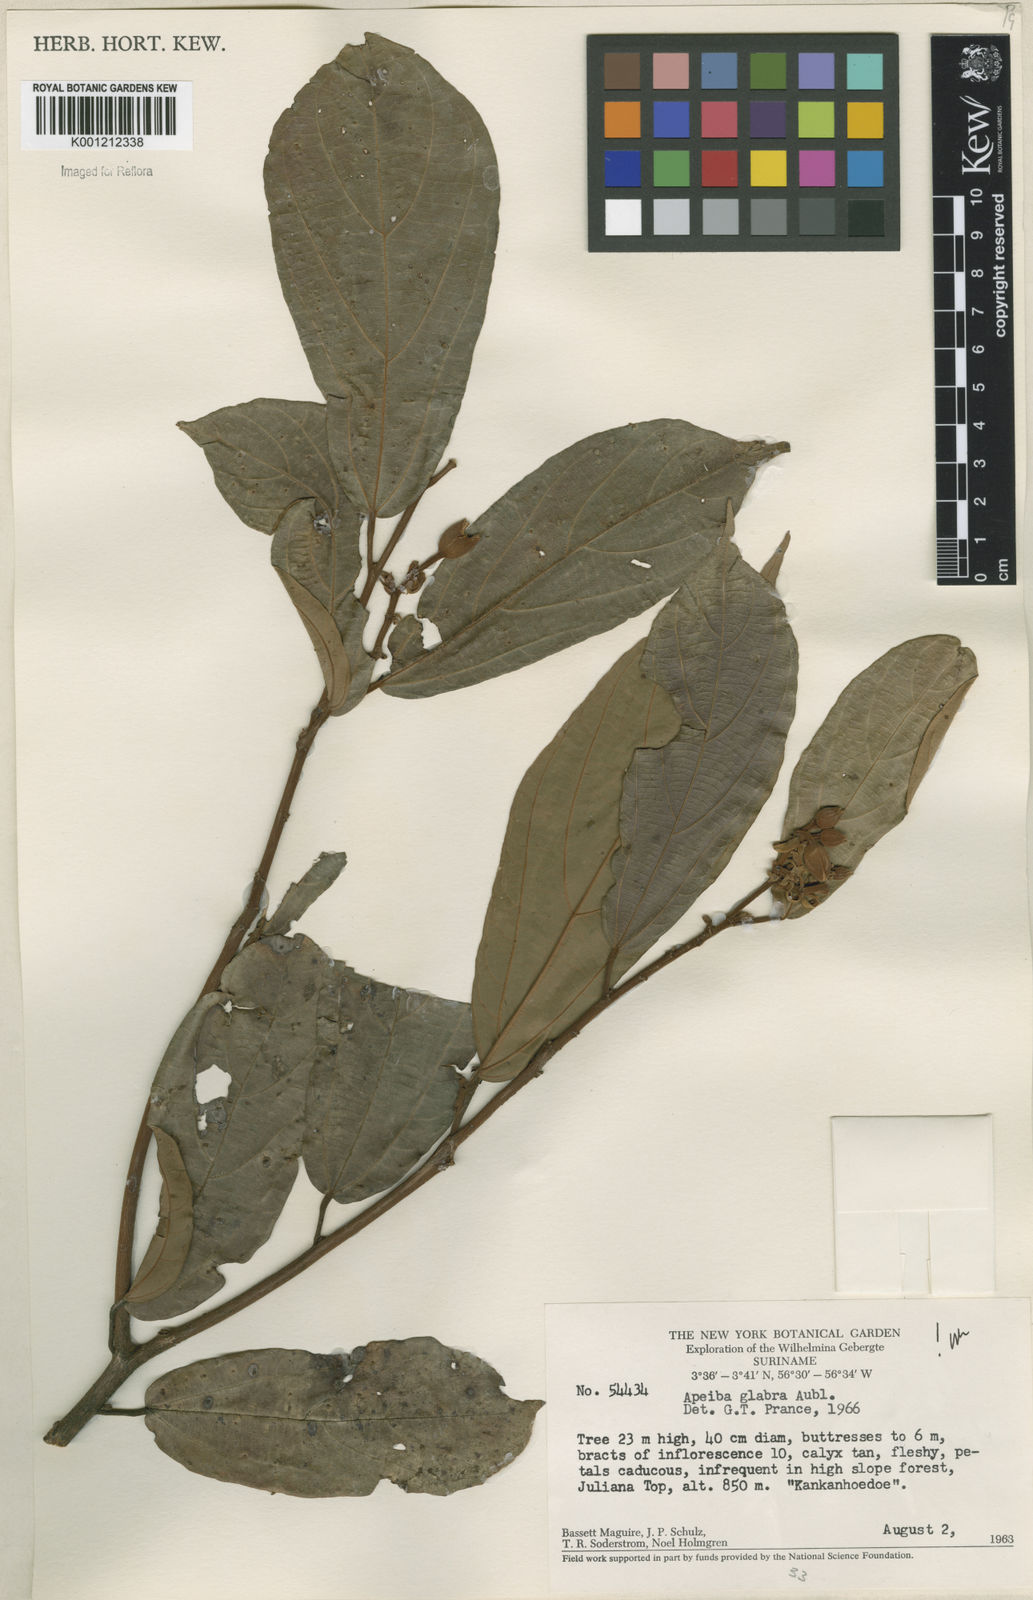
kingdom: Plantae
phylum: Tracheophyta
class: Magnoliopsida
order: Malvales
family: Malvaceae
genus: Apeiba
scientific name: Apeiba glabra
